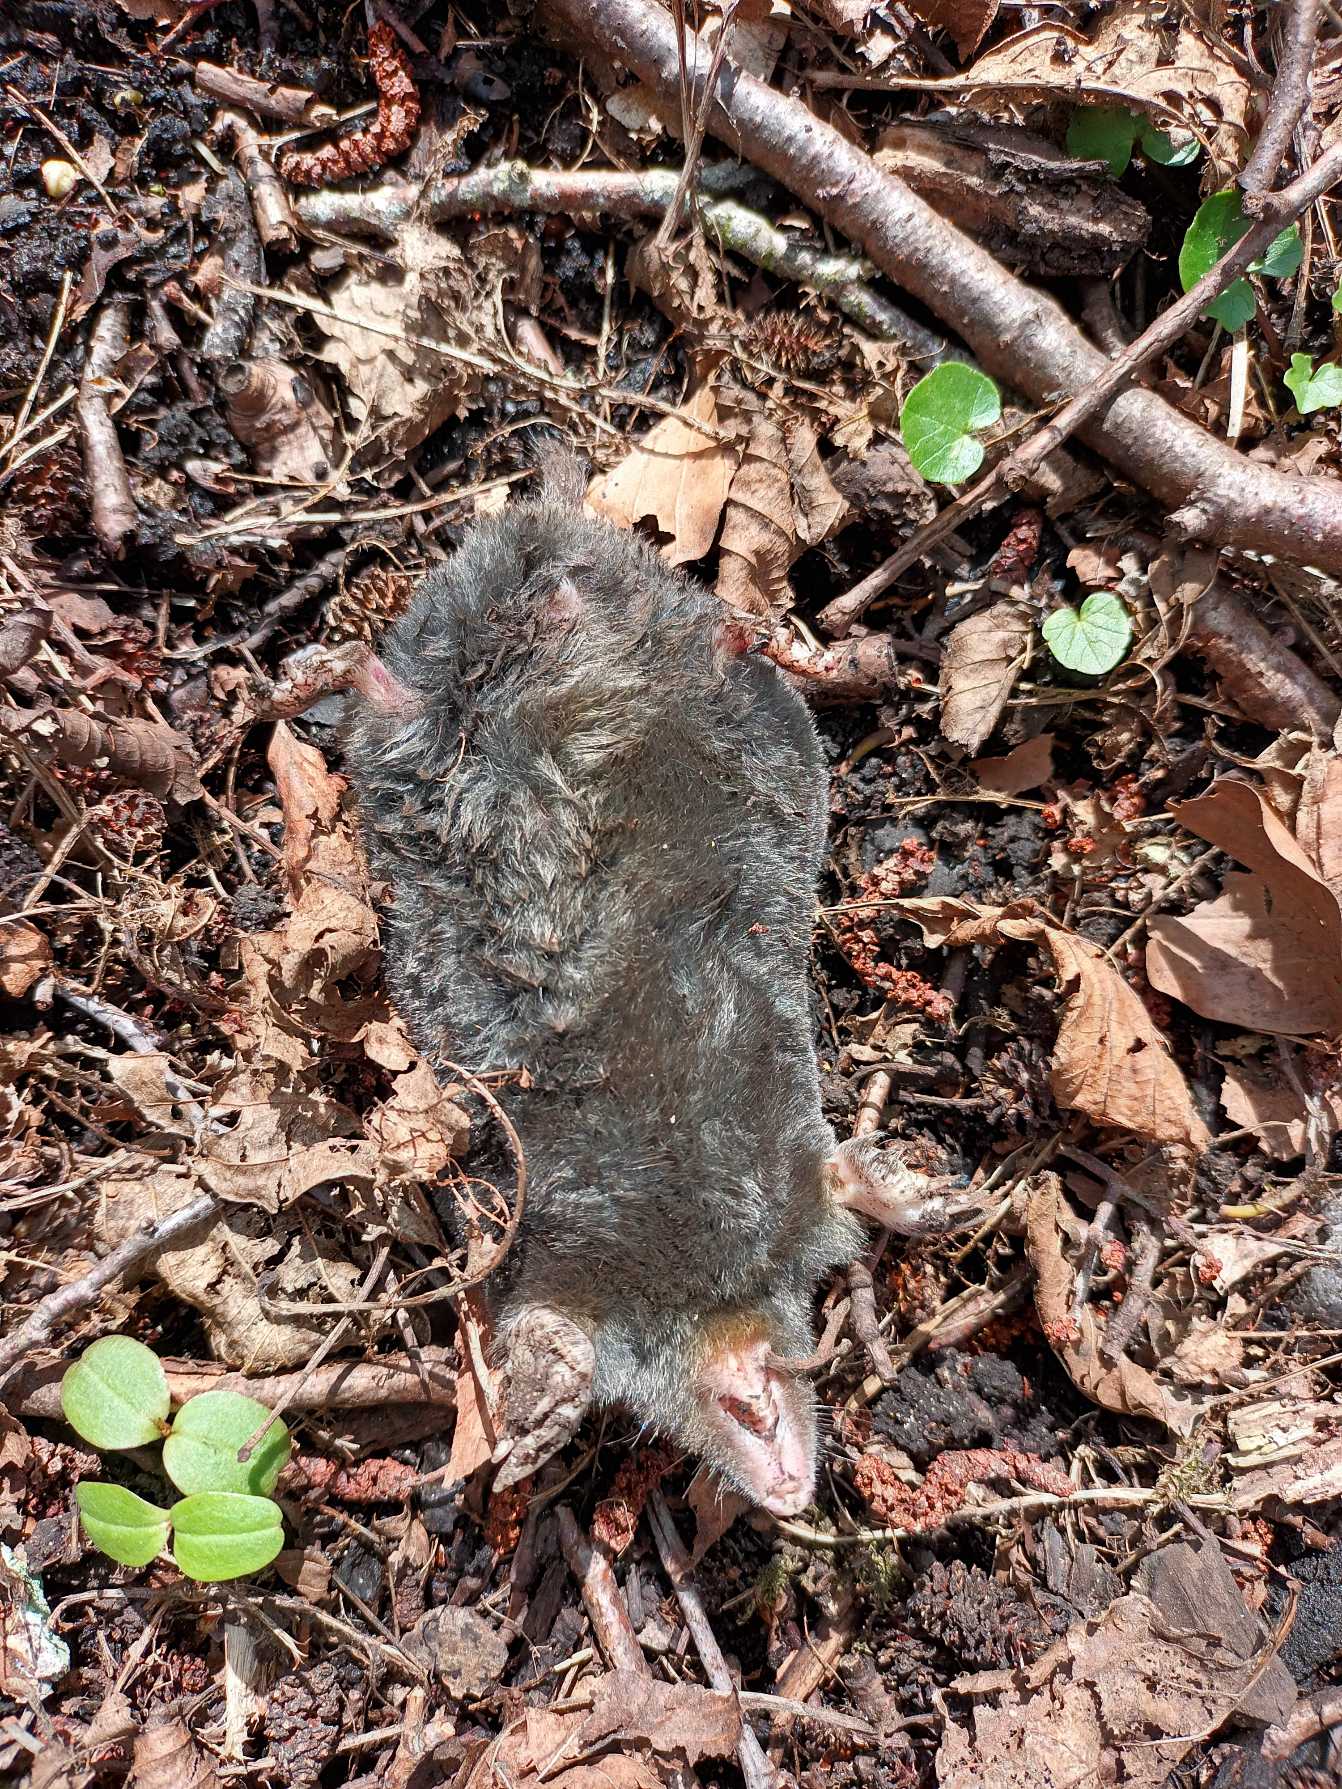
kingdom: Animalia
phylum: Chordata
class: Mammalia
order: Soricomorpha
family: Talpidae
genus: Talpa
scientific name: Talpa europaea
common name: Muldvarp
